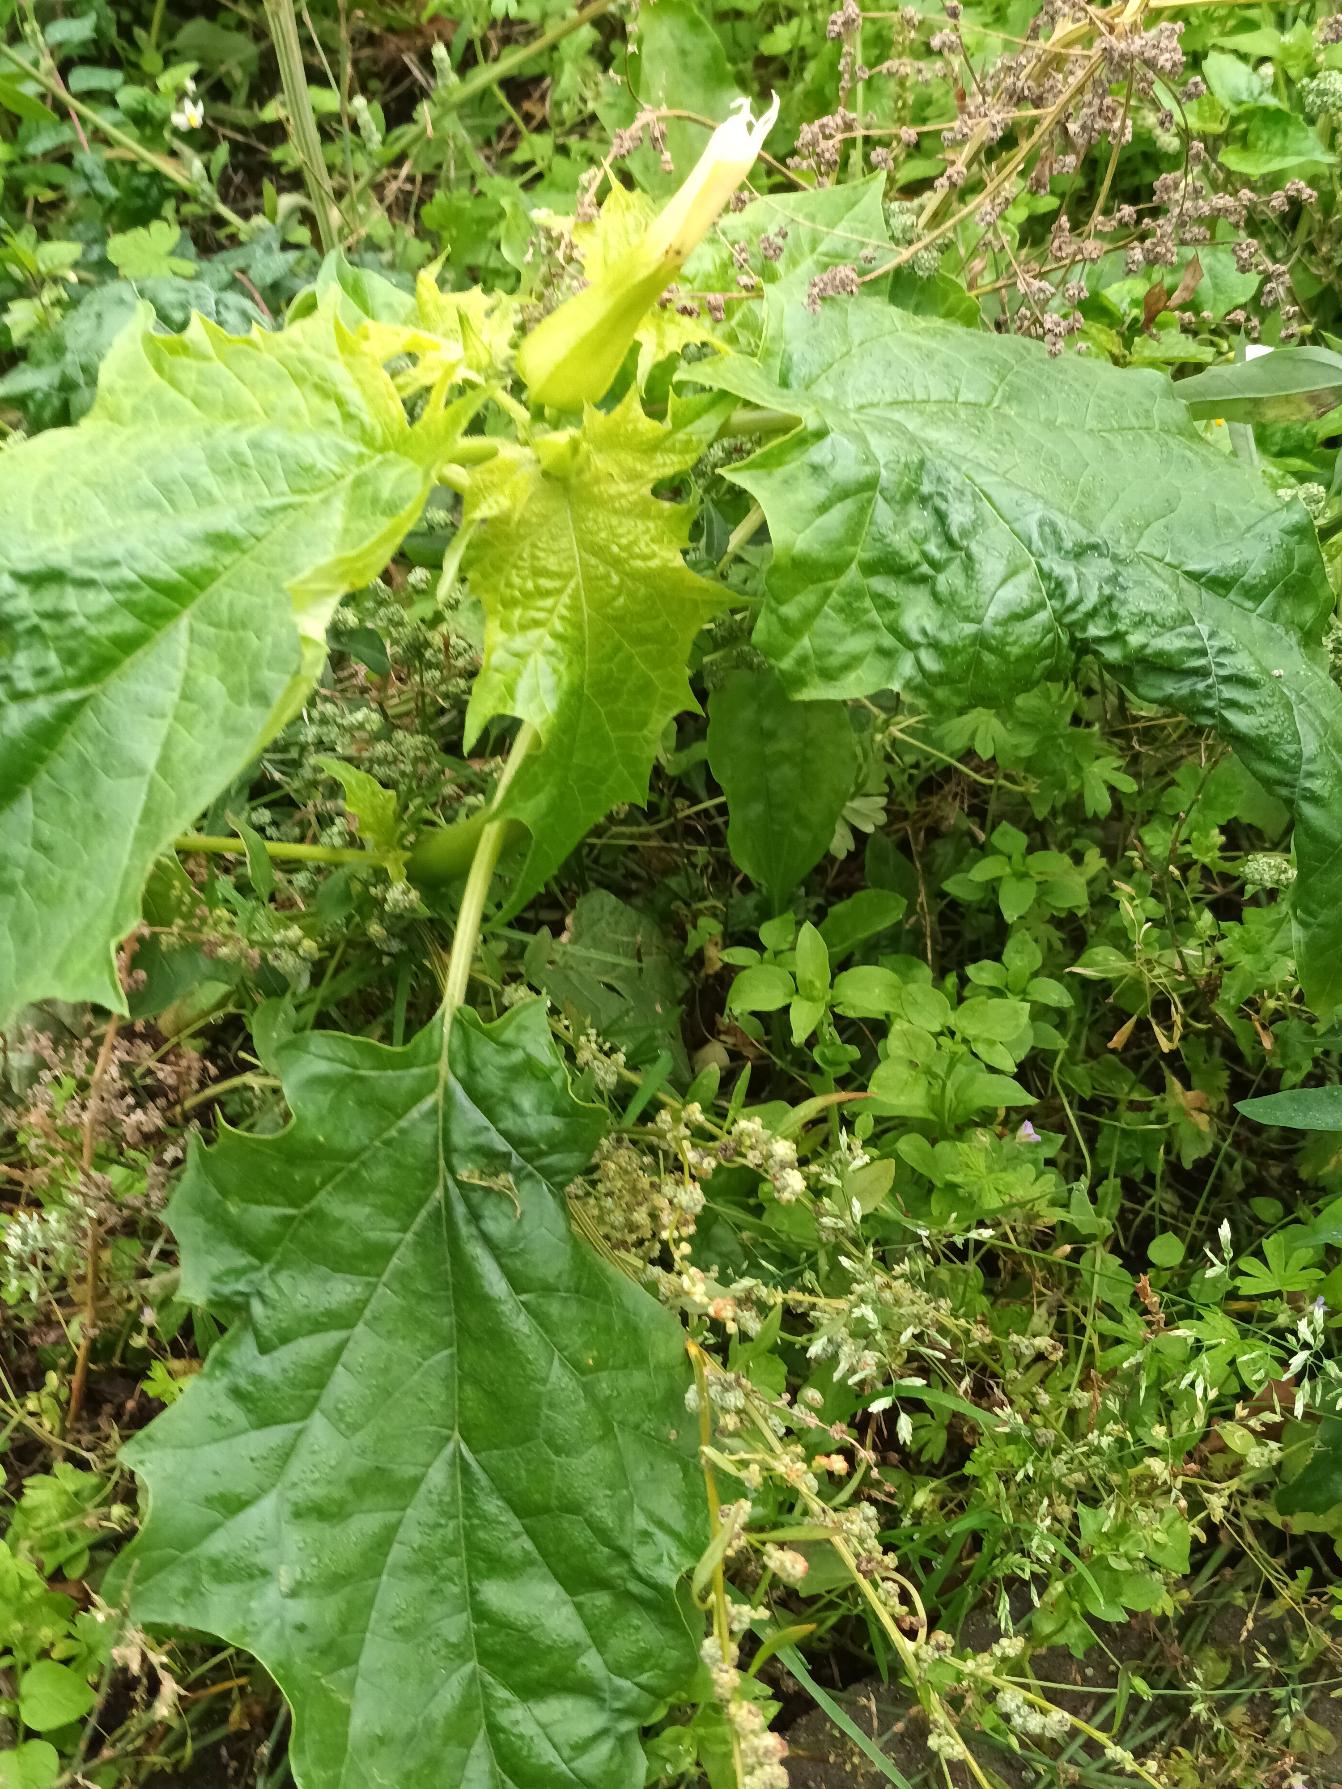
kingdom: Plantae
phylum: Tracheophyta
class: Magnoliopsida
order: Solanales
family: Solanaceae
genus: Datura
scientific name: Datura stramonium
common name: Pigæble
